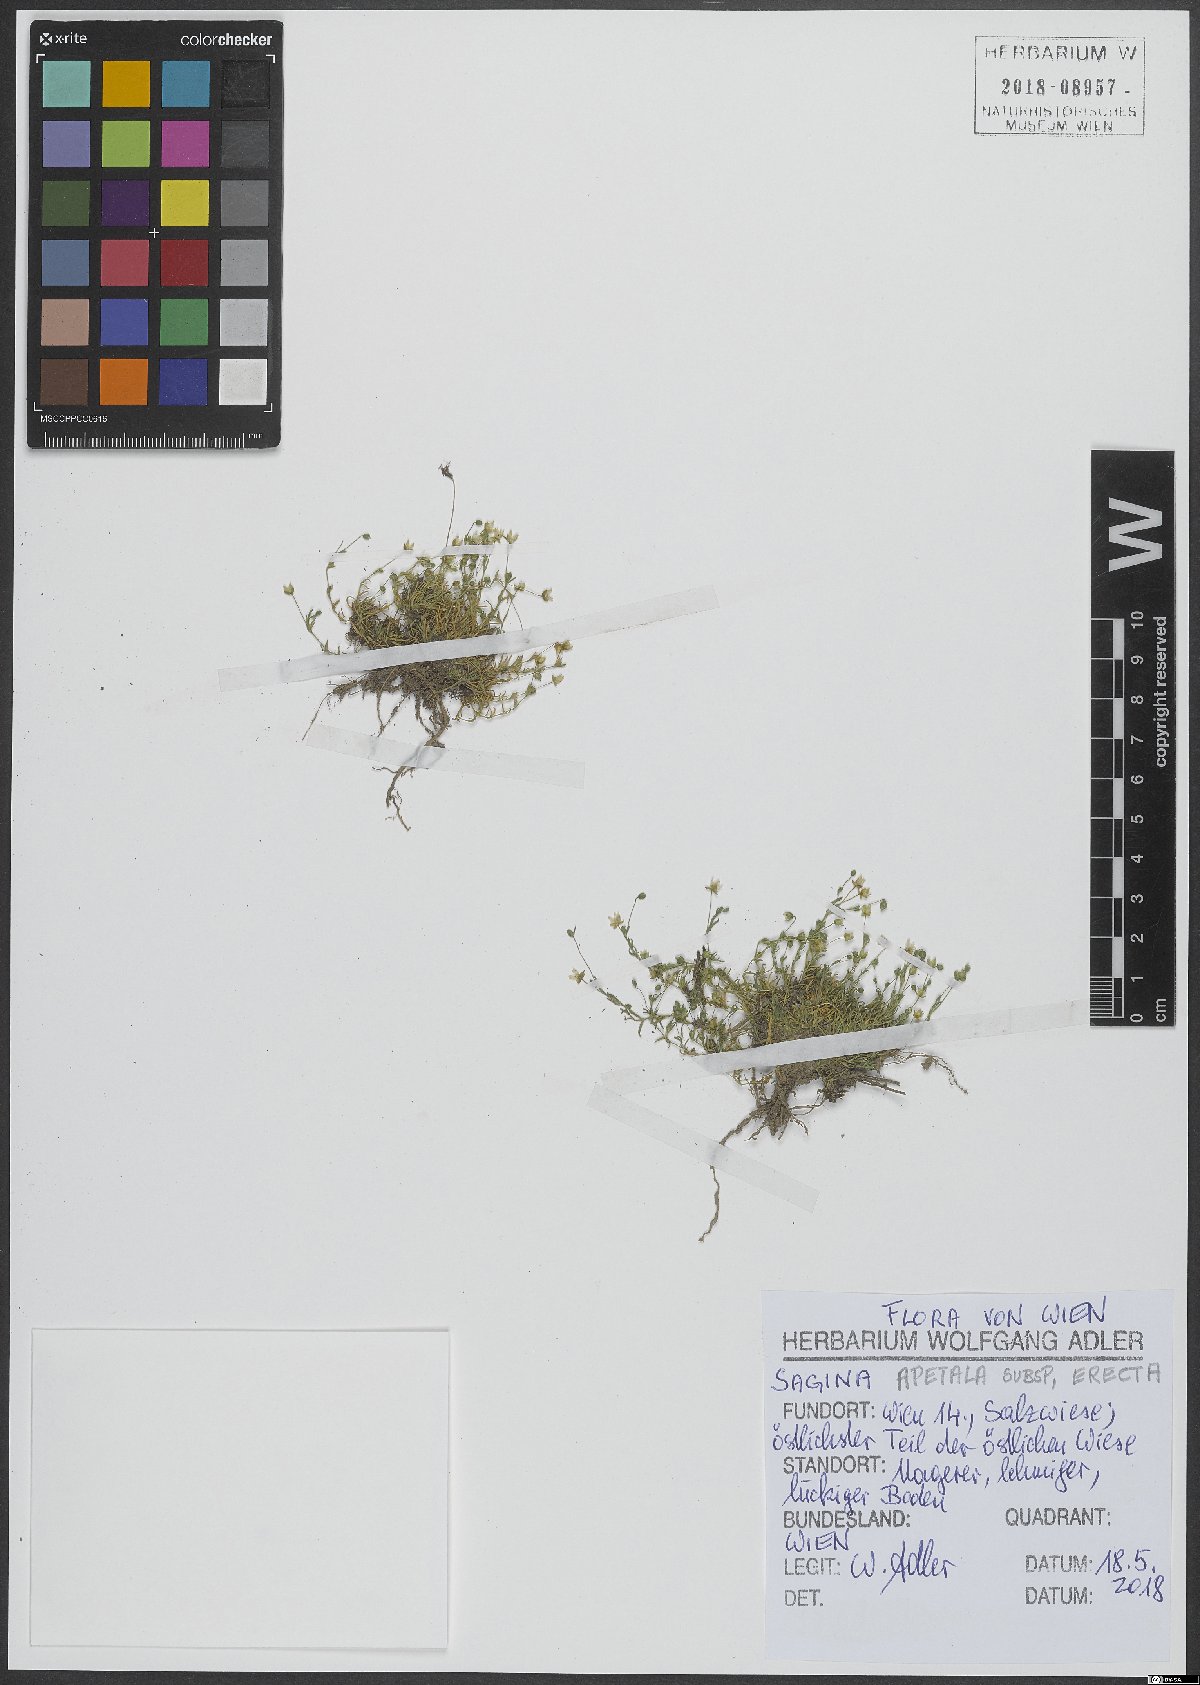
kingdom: Plantae
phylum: Tracheophyta
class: Magnoliopsida
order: Caryophyllales
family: Caryophyllaceae
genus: Sagina
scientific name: Sagina micropetala
